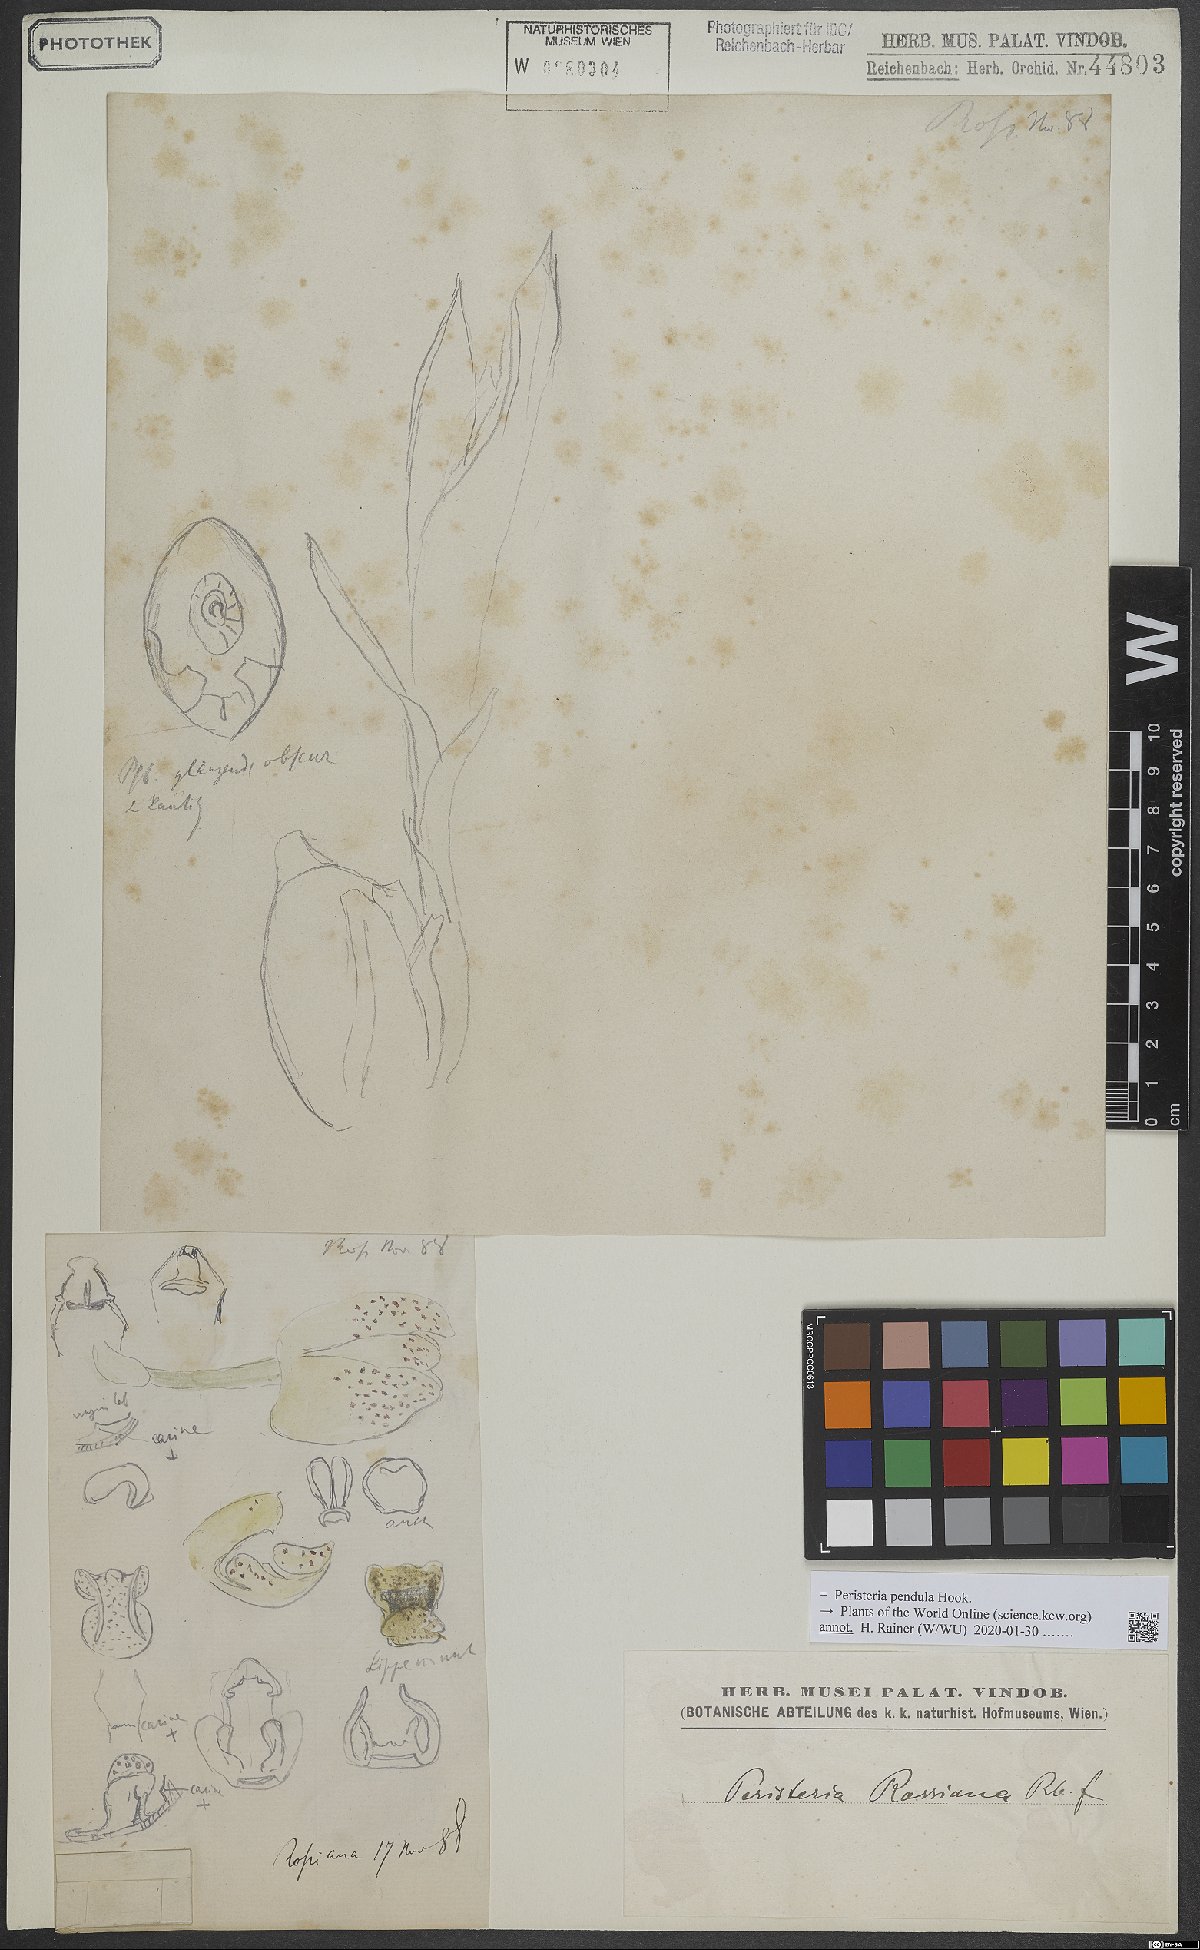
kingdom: Plantae
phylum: Tracheophyta
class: Liliopsida
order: Asparagales
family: Orchidaceae
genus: Peristeria
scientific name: Peristeria pendula
